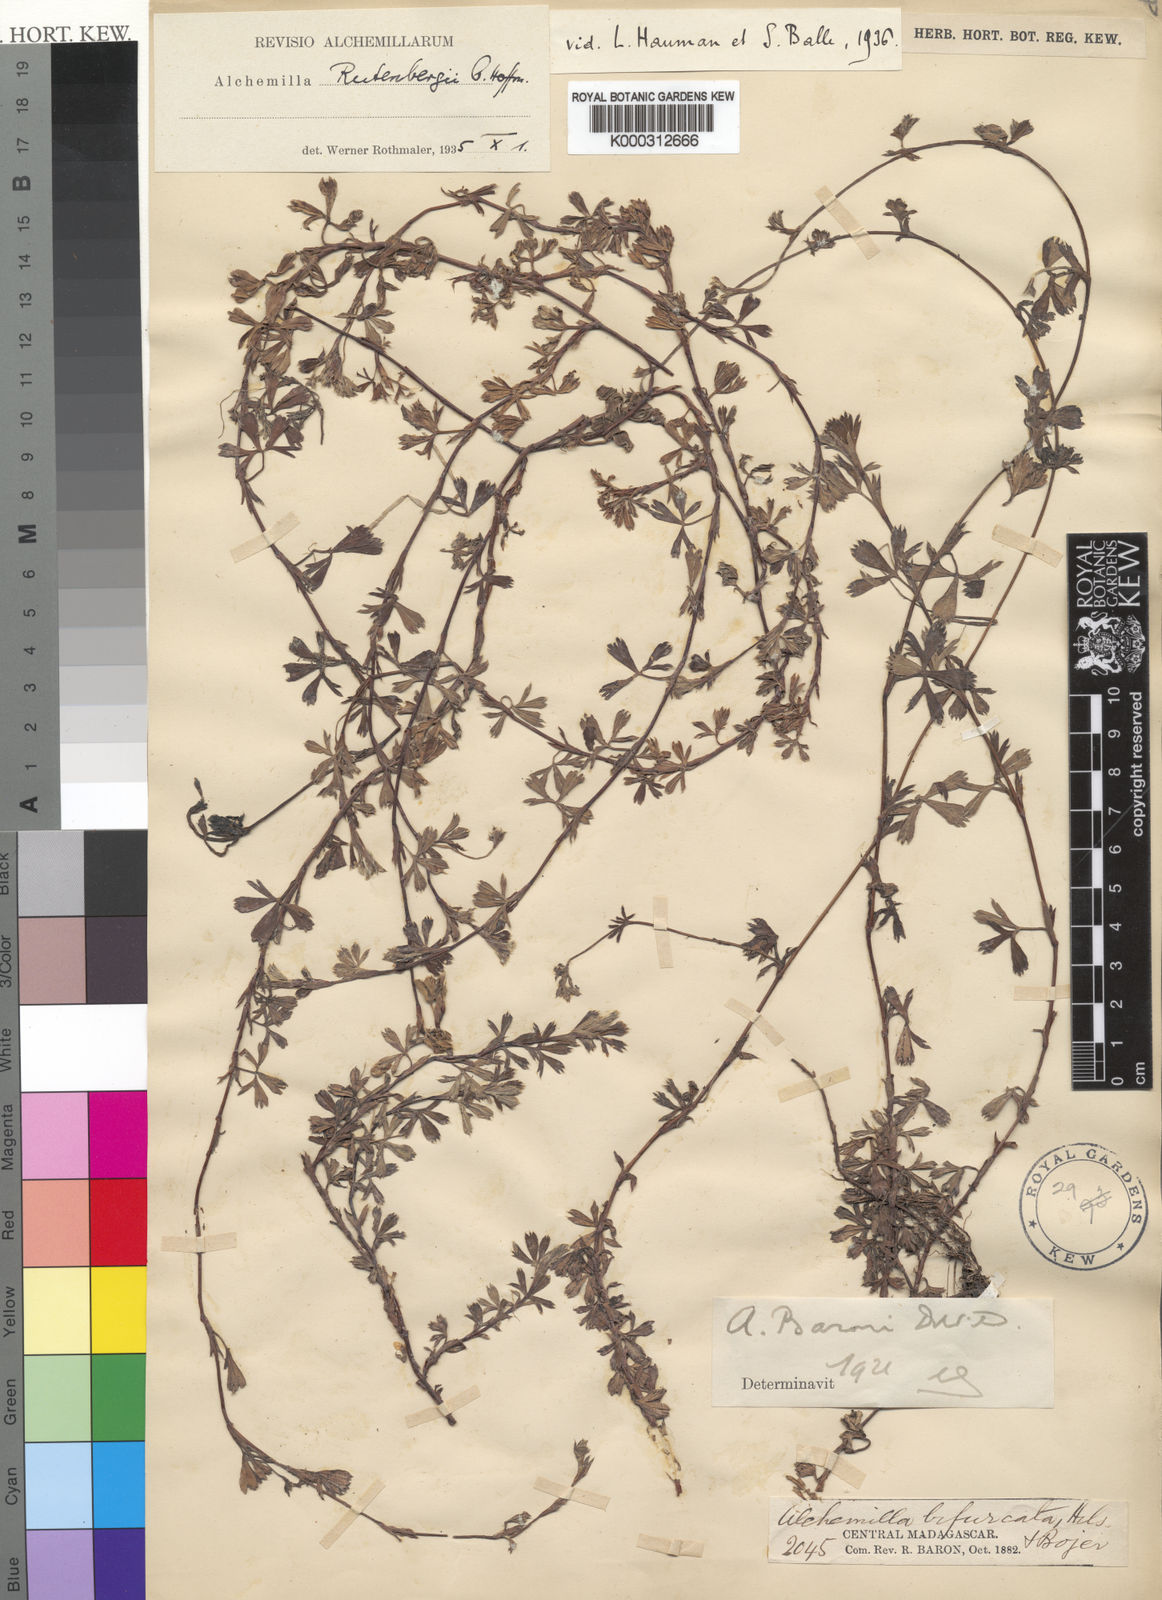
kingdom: Plantae
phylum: Tracheophyta
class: Magnoliopsida
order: Rosales
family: Rosaceae
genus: Alchemilla
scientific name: Alchemilla
